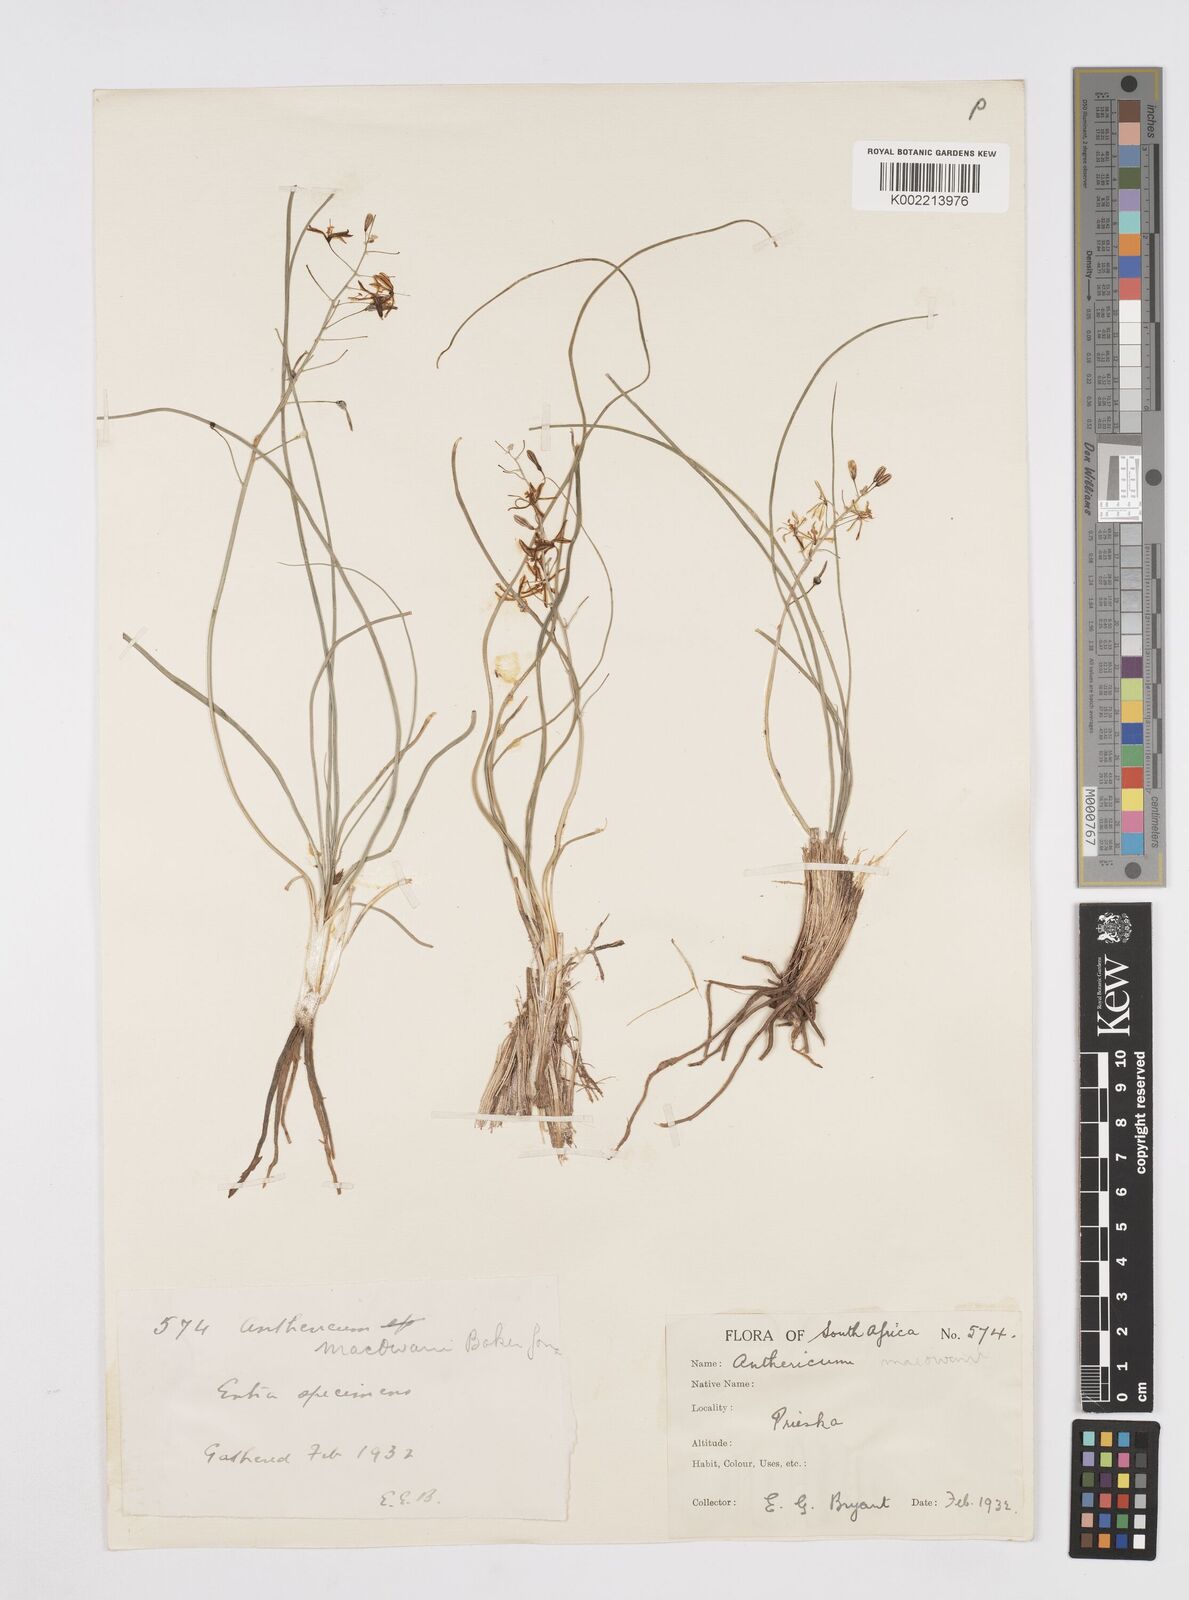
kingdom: Plantae
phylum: Tracheophyta
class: Liliopsida
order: Asparagales
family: Asphodelaceae
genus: Trachyandra
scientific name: Trachyandra asperata
